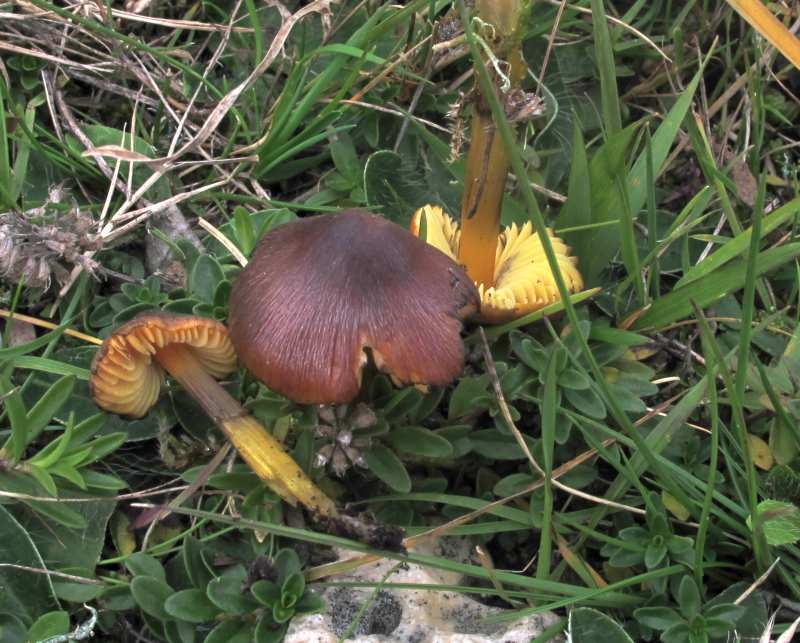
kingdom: Fungi
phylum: Basidiomycota
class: Agaricomycetes
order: Agaricales
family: Hygrophoraceae
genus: Hygrocybe
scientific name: Hygrocybe conica
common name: kegle-vokshat
